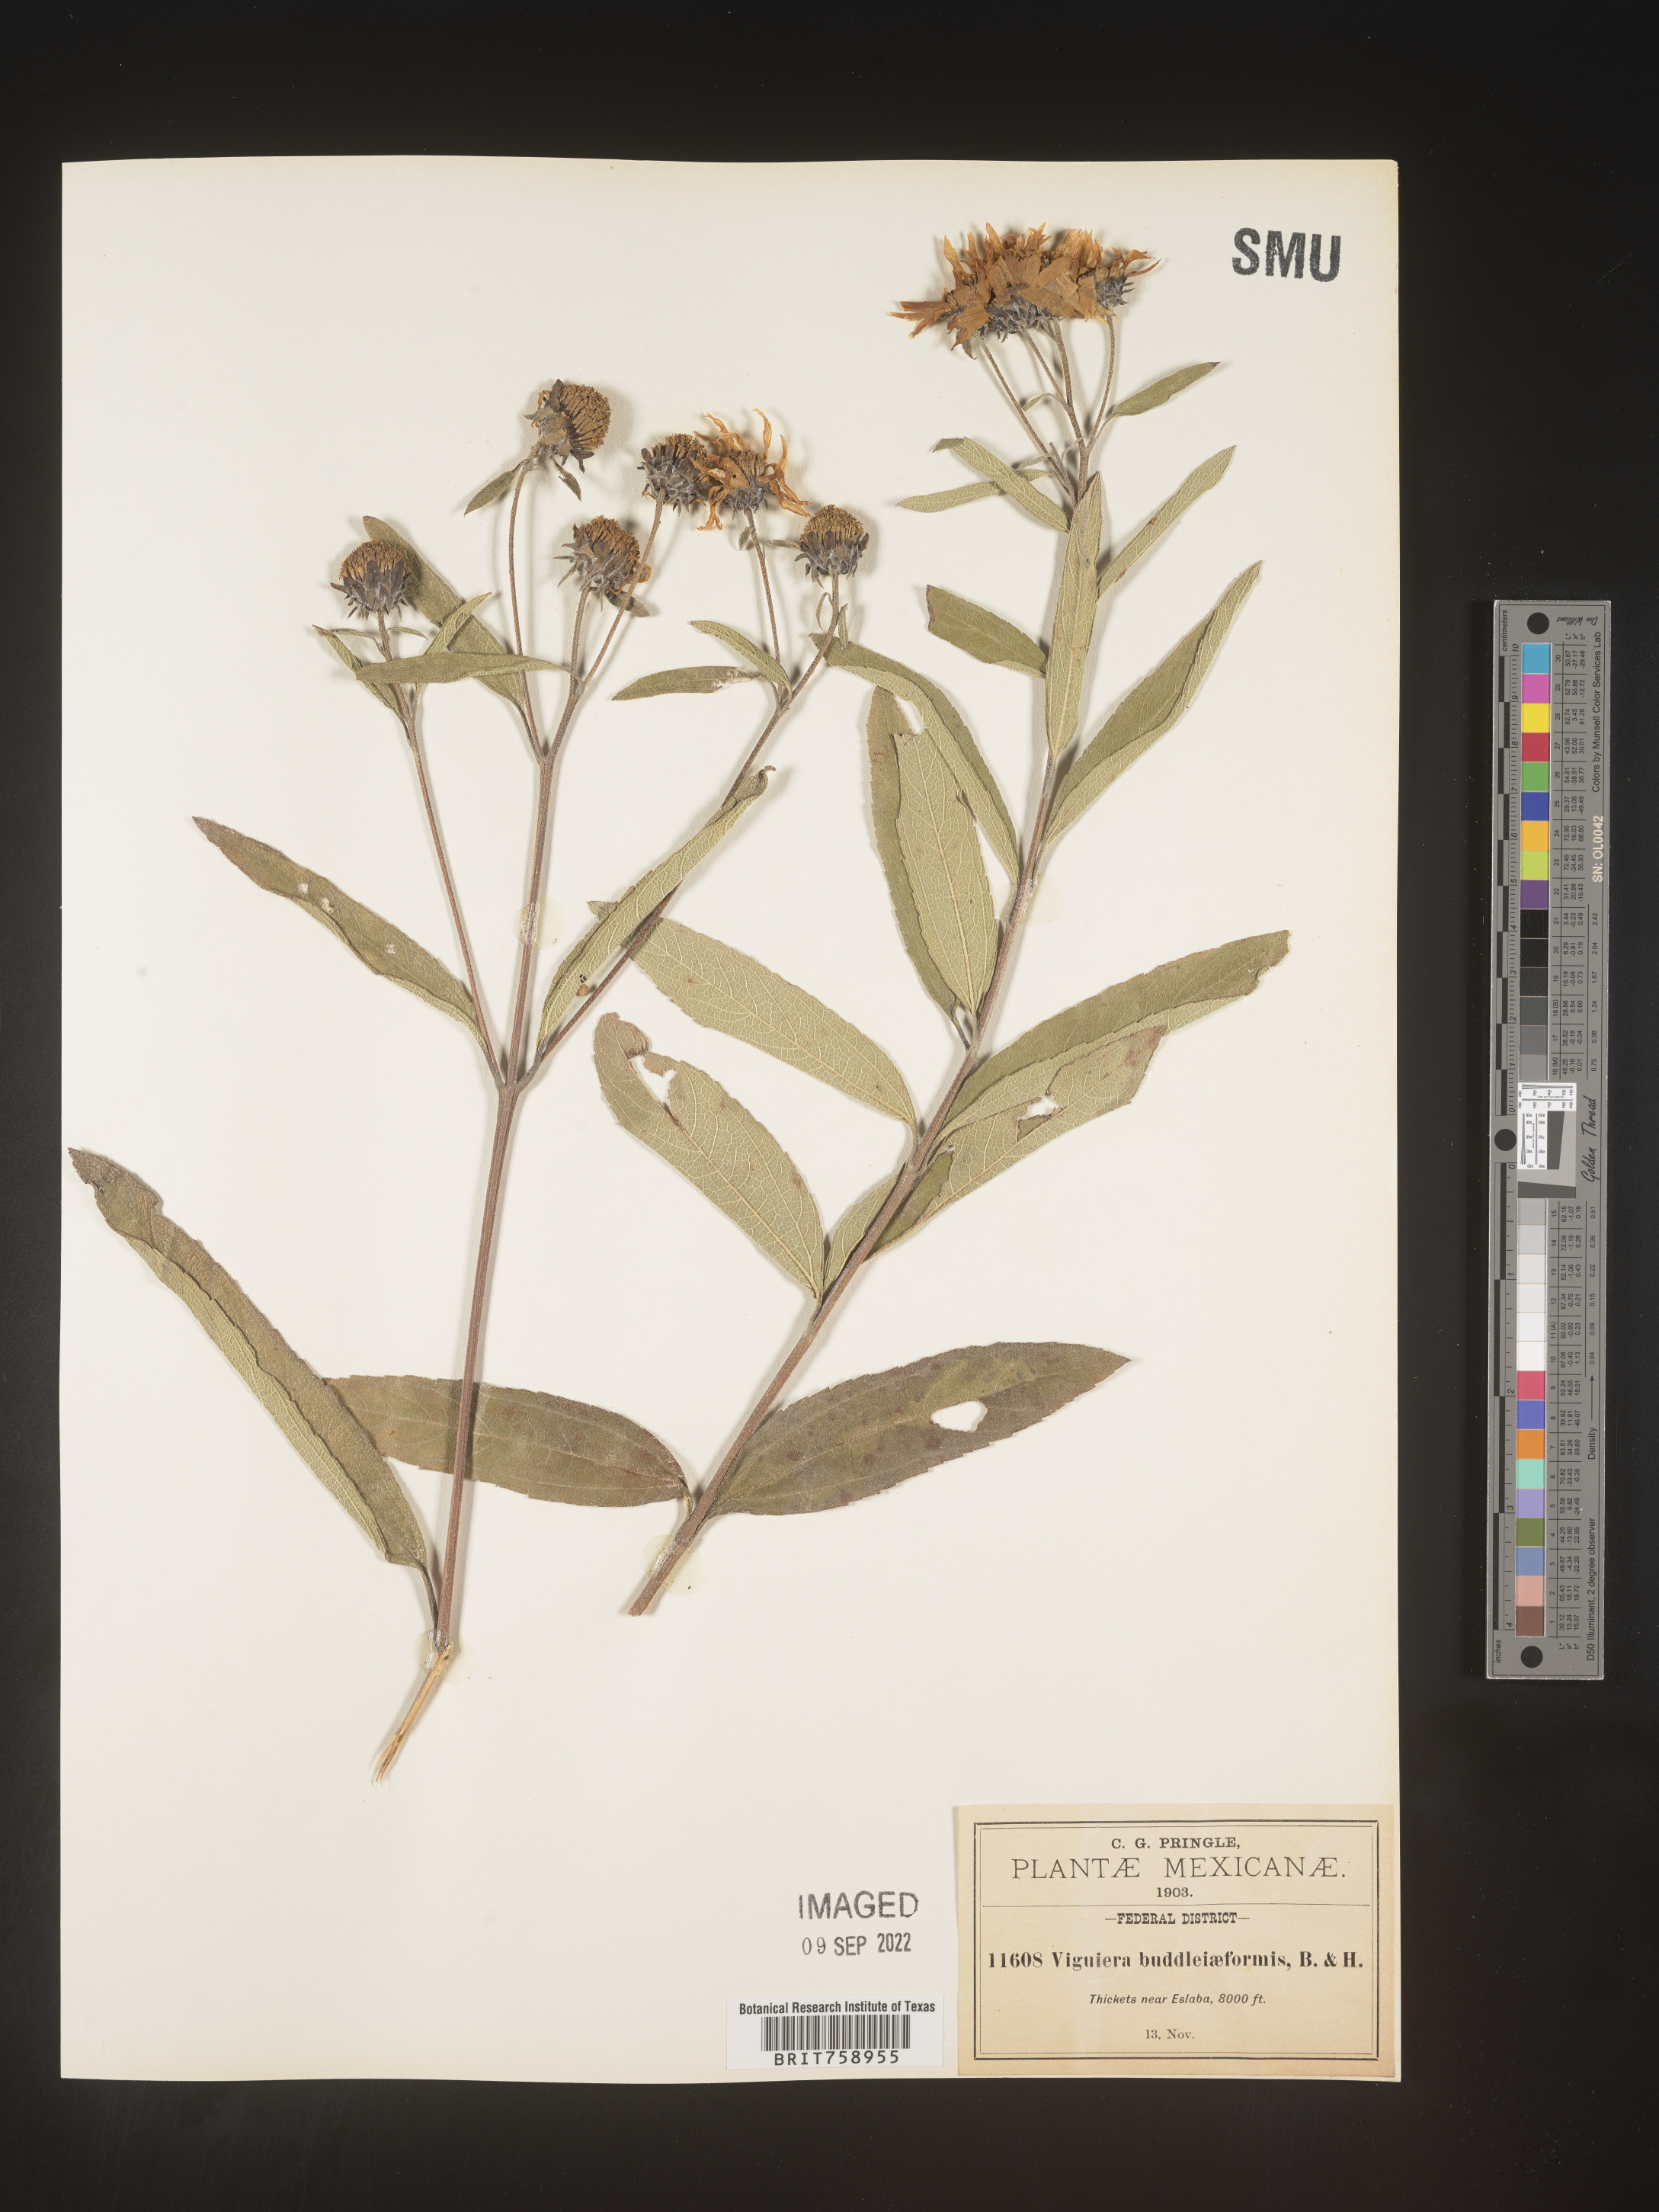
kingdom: Plantae
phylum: Tracheophyta
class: Magnoliopsida
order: Asterales
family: Asteraceae
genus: Viguiera
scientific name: Viguiera
